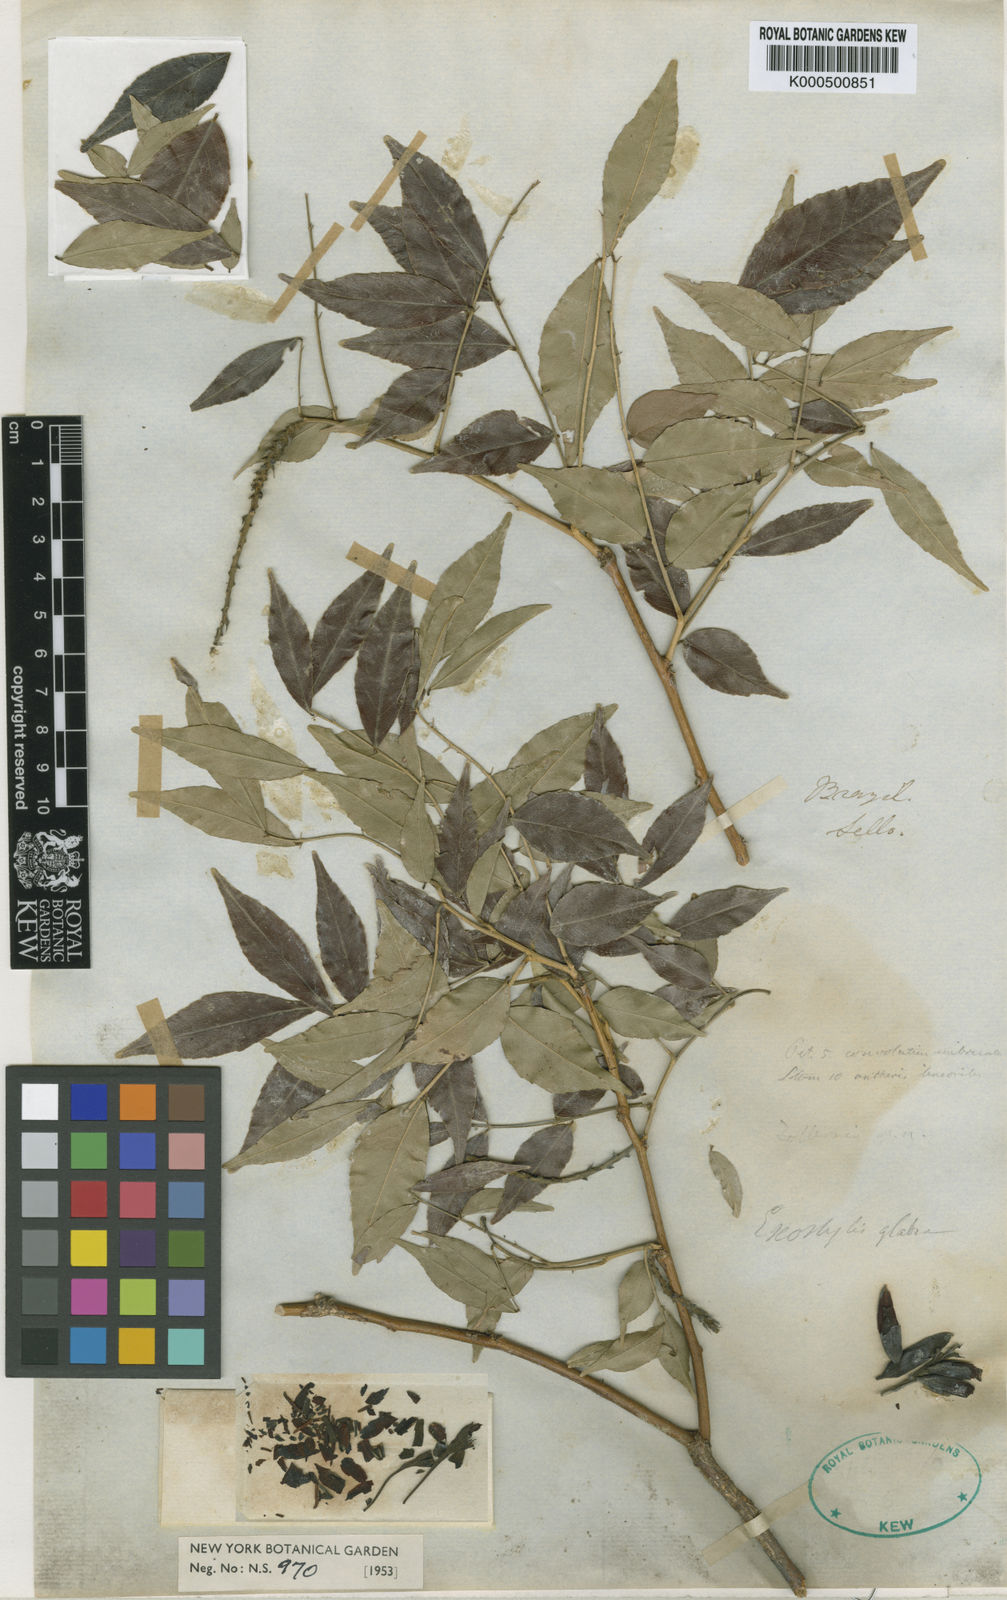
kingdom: Plantae
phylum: Tracheophyta
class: Magnoliopsida
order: Fabales
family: Fabaceae
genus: Exostyles
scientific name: Exostyles glabra
